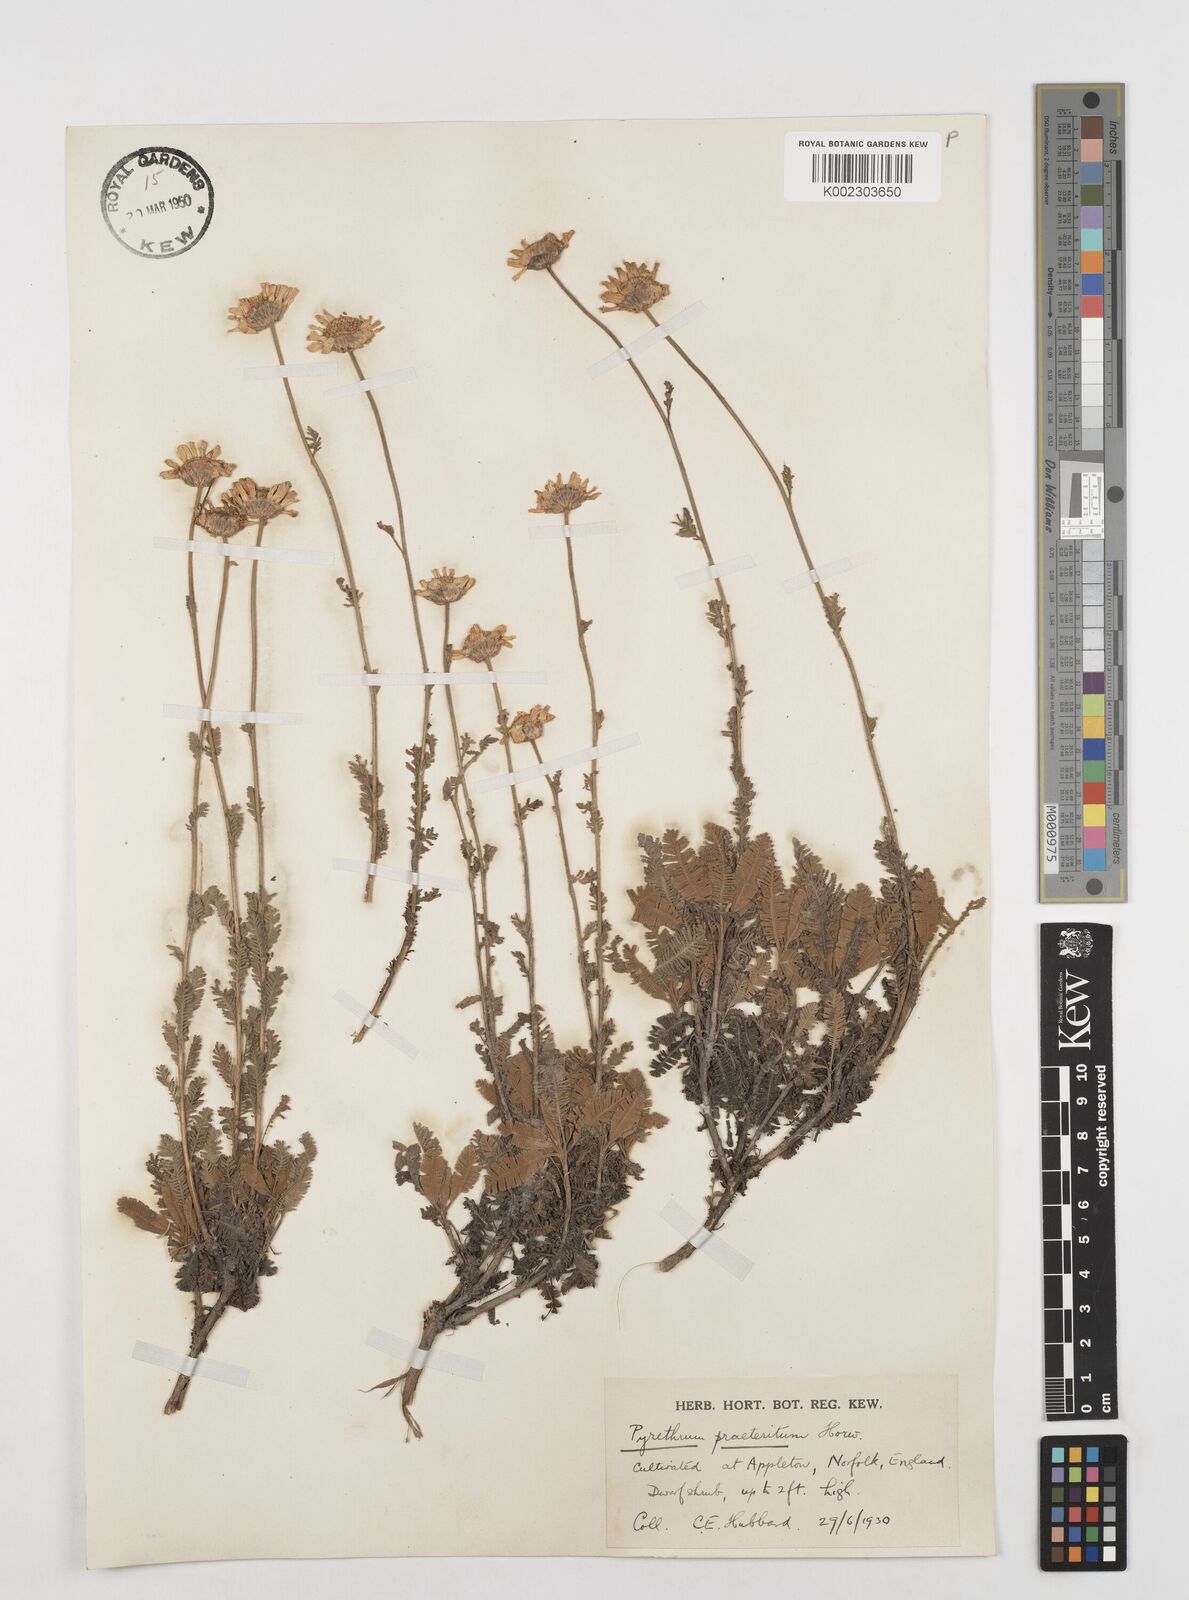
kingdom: Plantae
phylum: Tracheophyta
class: Magnoliopsida
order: Asterales
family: Asteraceae
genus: Tanacetum
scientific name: Tanacetum praeteritum
